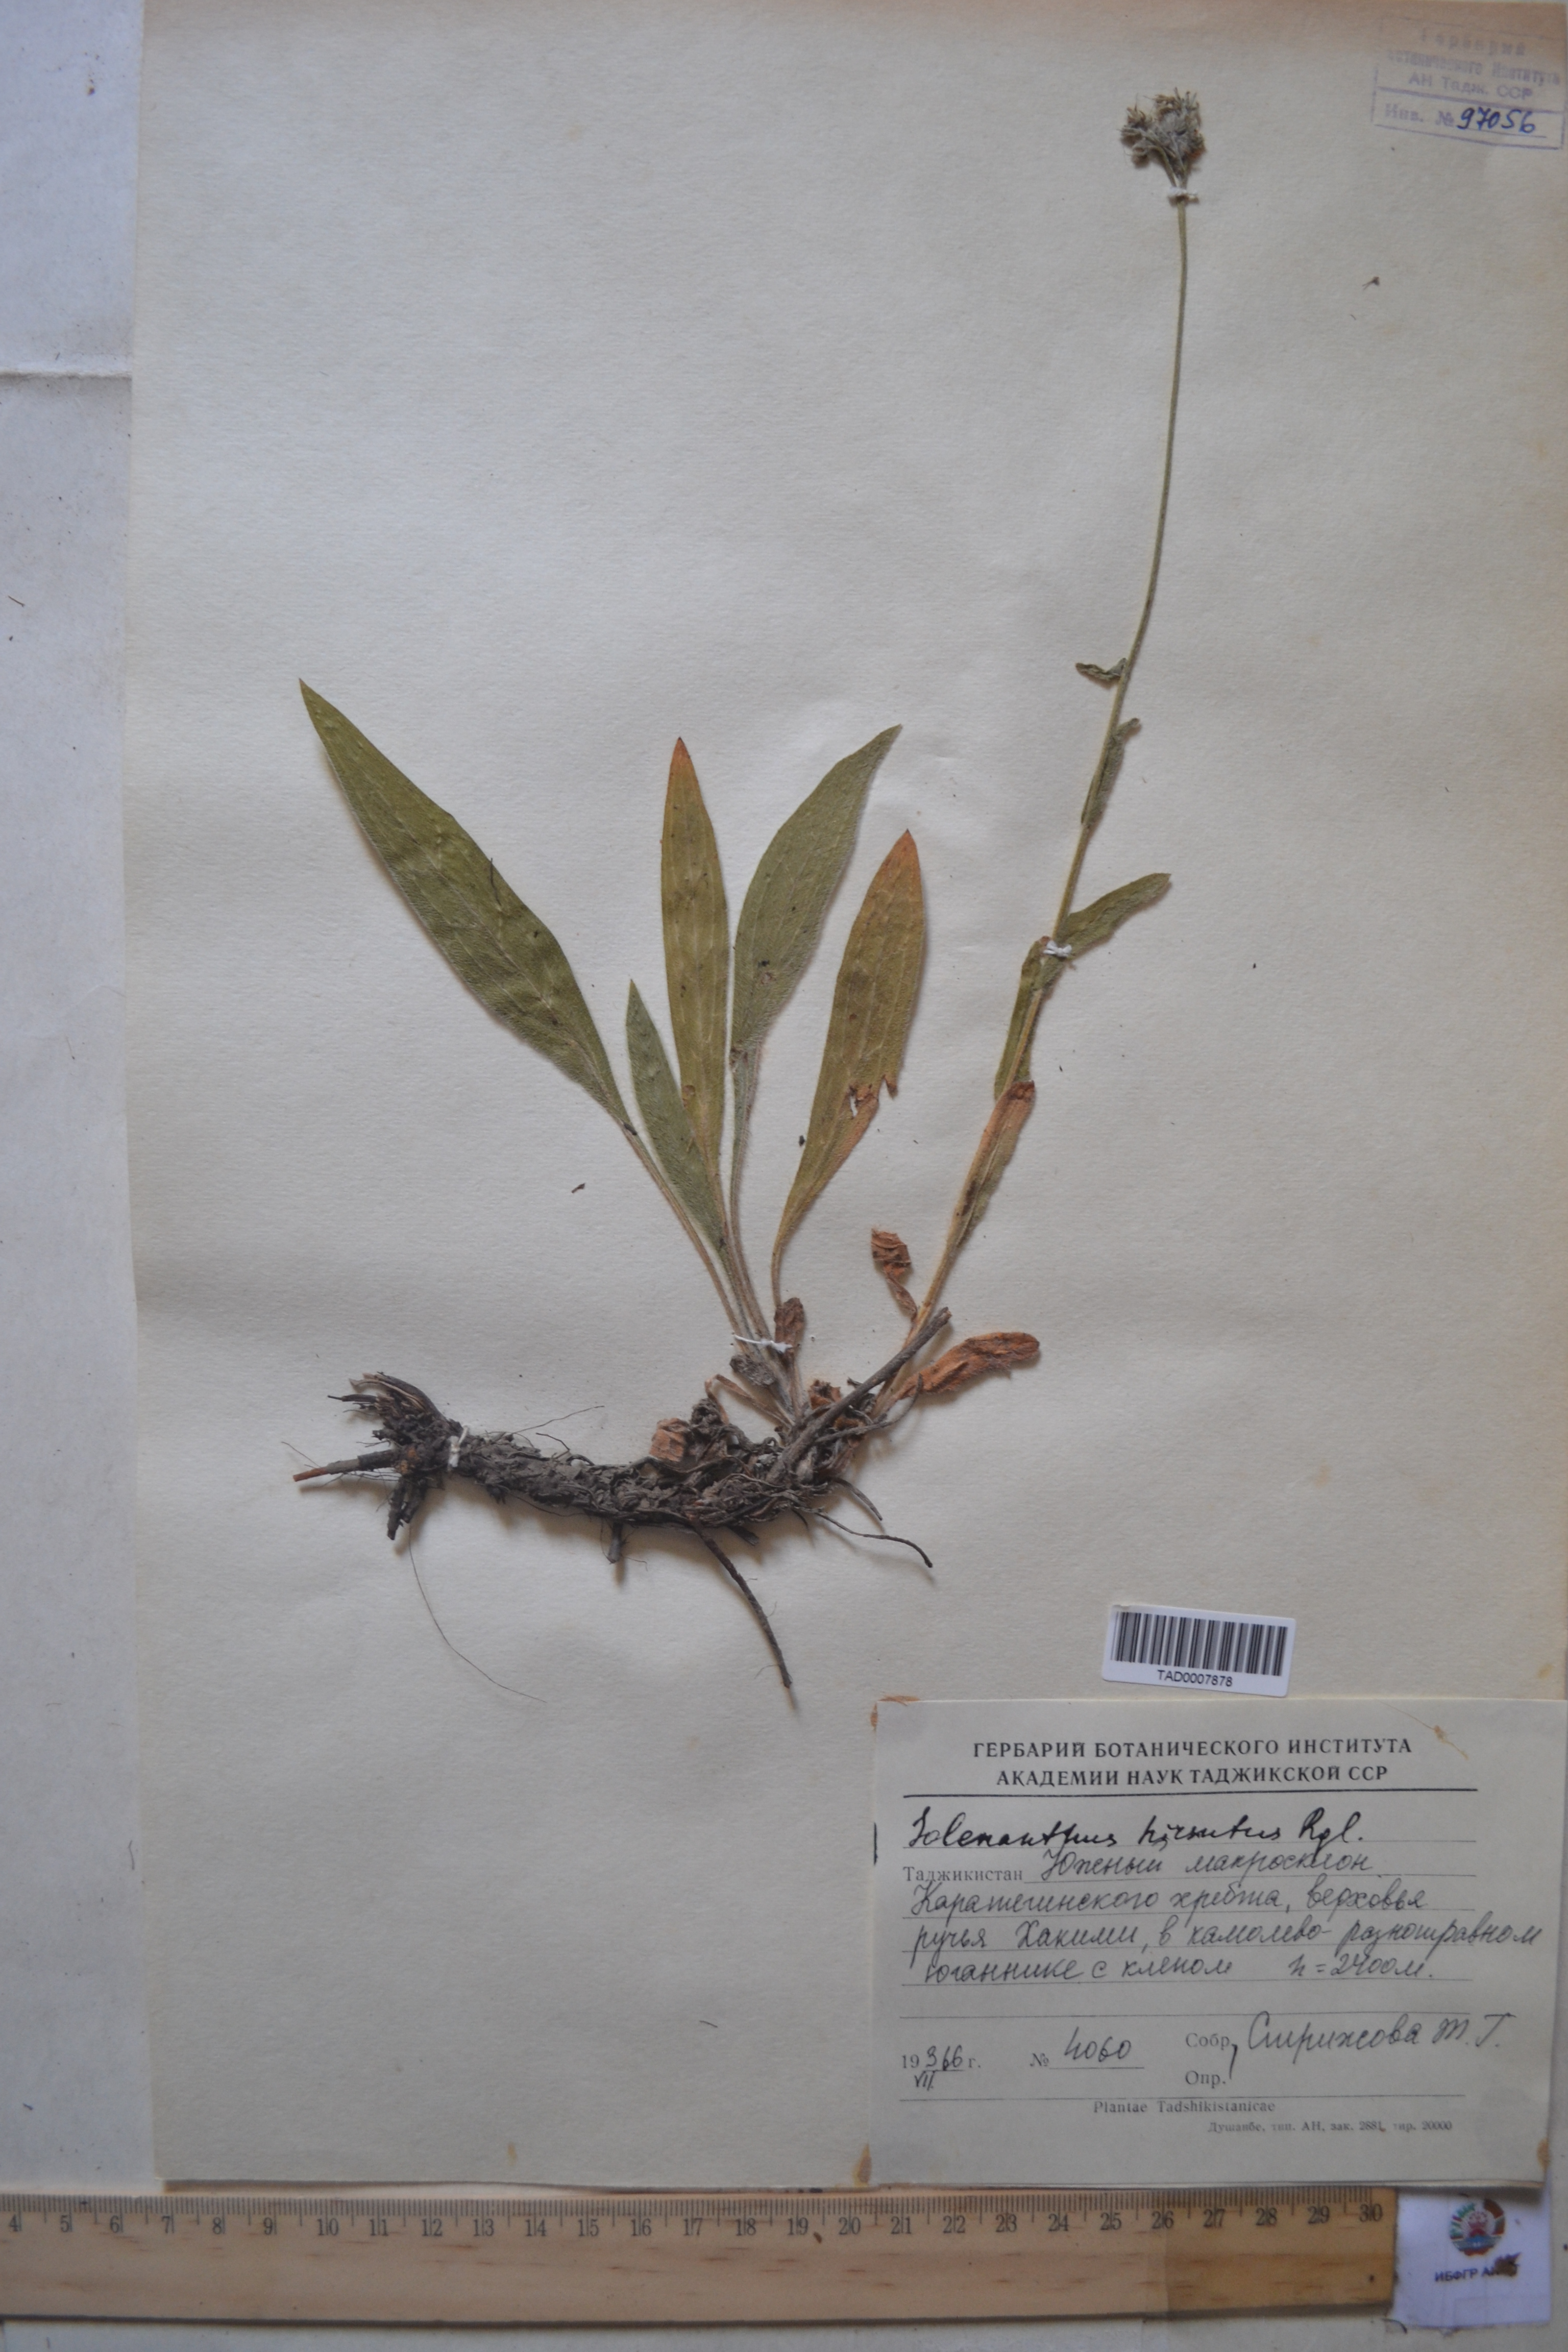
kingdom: Plantae
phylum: Tracheophyta
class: Magnoliopsida
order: Boraginales
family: Boraginaceae
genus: Solenanthus
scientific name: Solenanthus hirsutus
